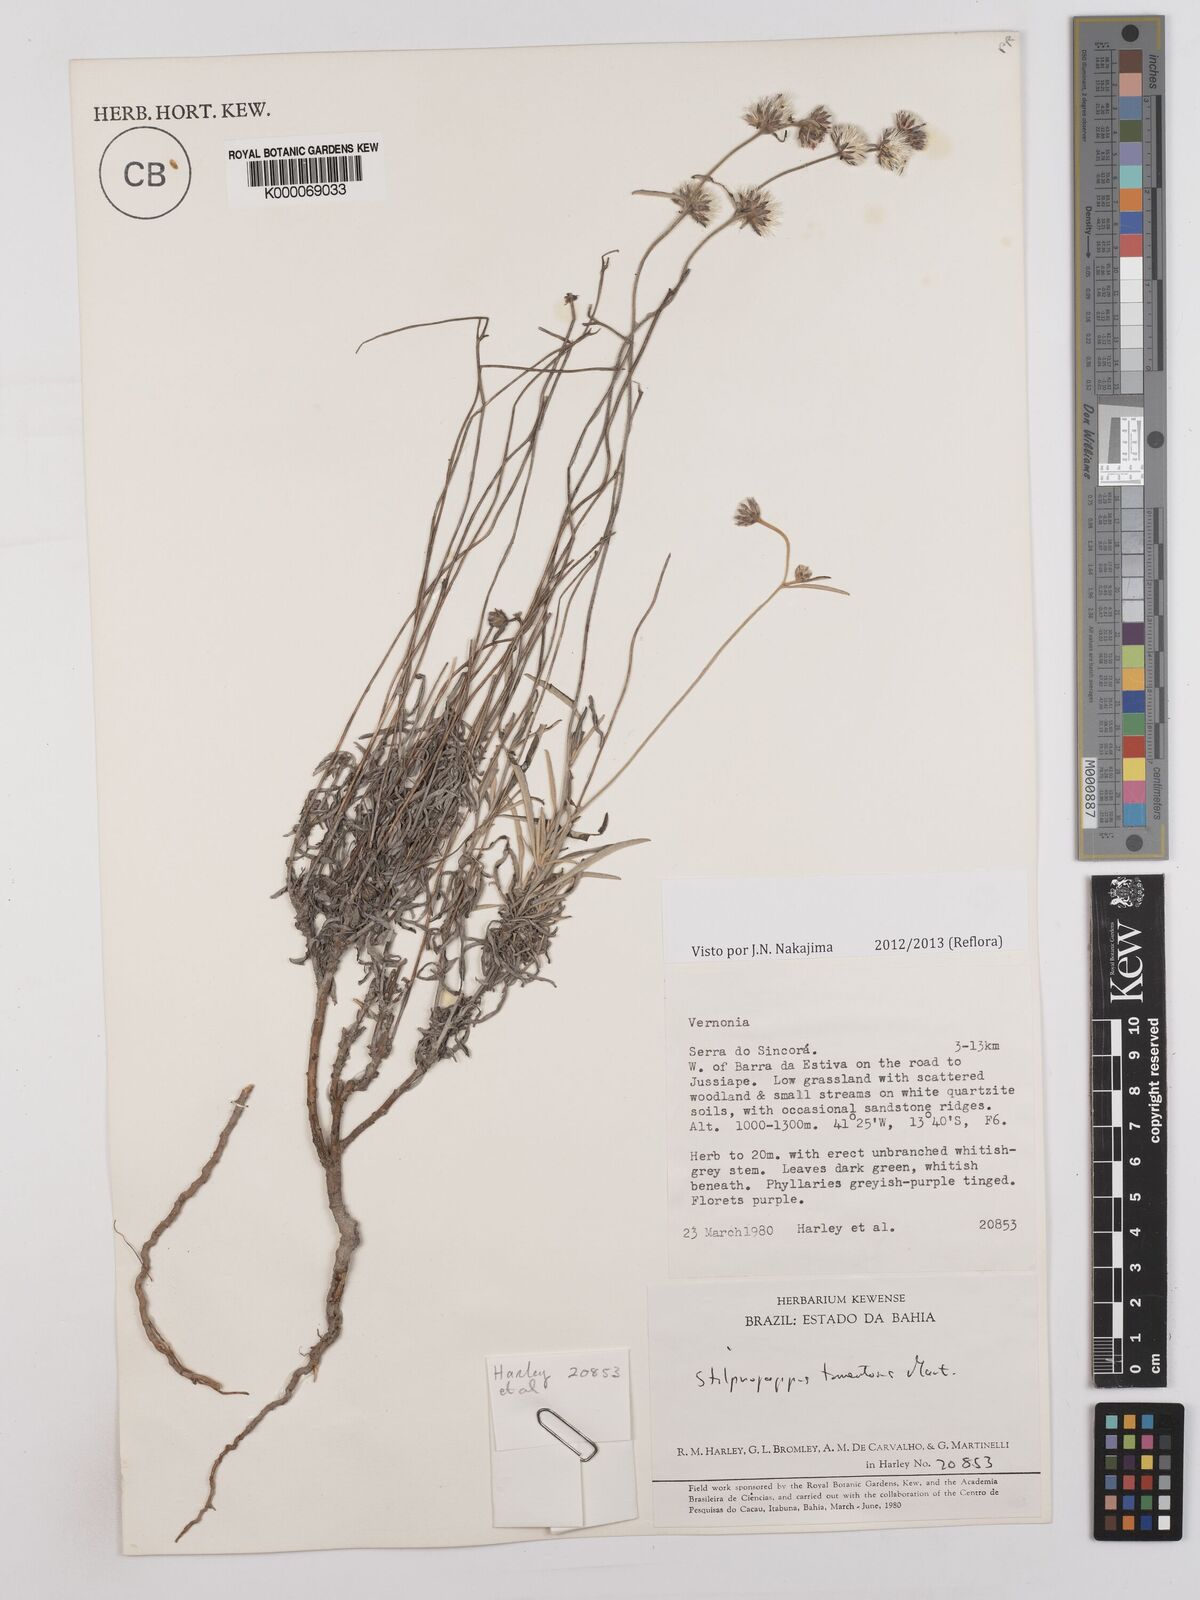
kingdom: Plantae
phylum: Tracheophyta
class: Magnoliopsida
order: Asterales
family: Asteraceae
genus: Stilpnopappus
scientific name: Stilpnopappus tomentosus
